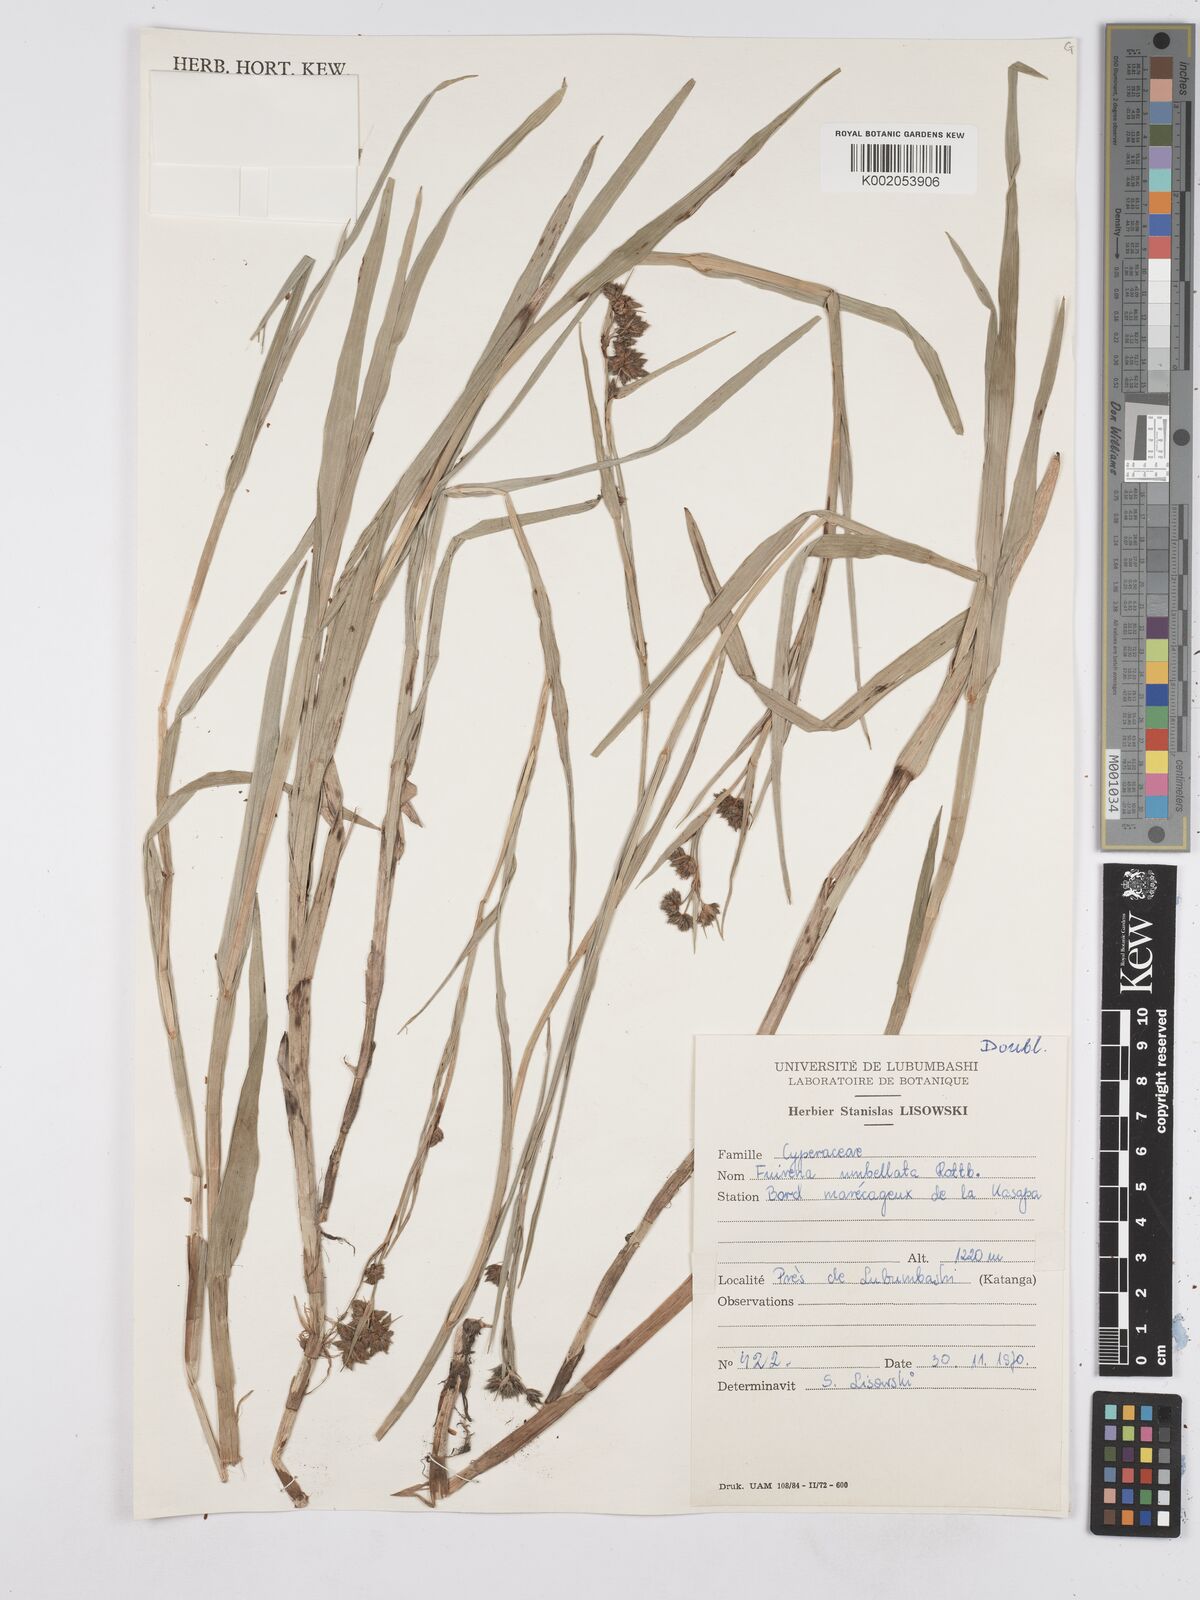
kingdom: Plantae
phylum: Tracheophyta
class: Liliopsida
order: Poales
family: Cyperaceae
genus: Fuirena
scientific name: Fuirena umbellata
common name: Yefen
